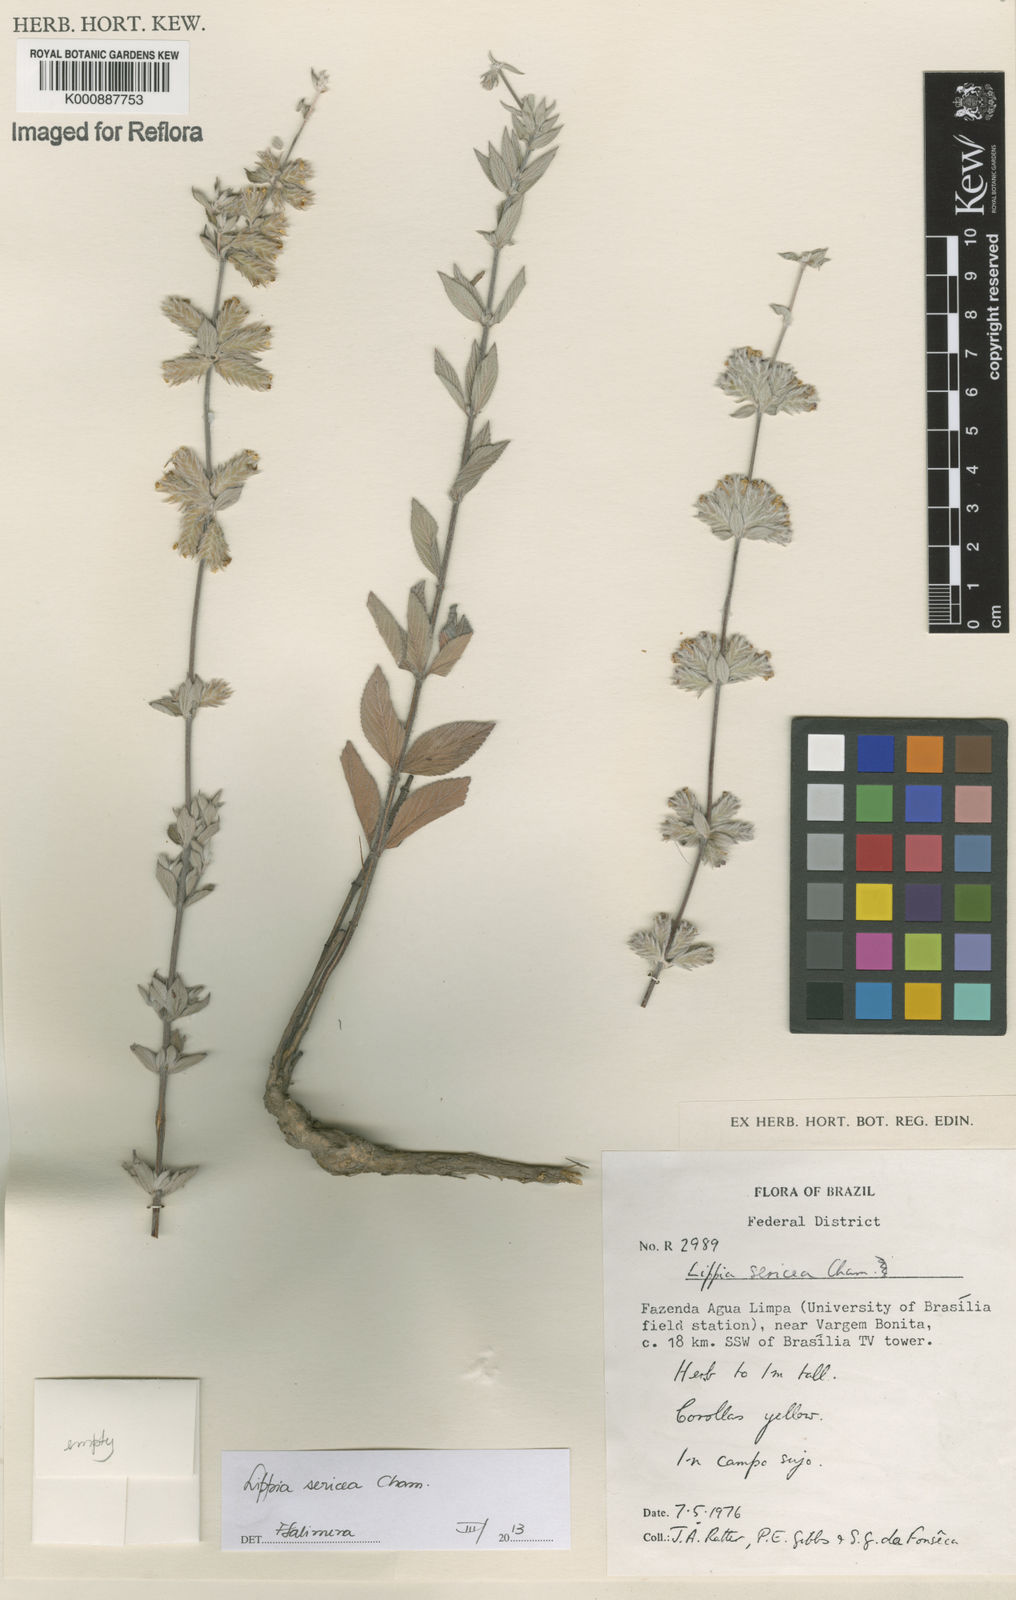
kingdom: Plantae
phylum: Tracheophyta
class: Magnoliopsida
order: Lamiales
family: Verbenaceae
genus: Lippia
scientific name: Lippia sericea
